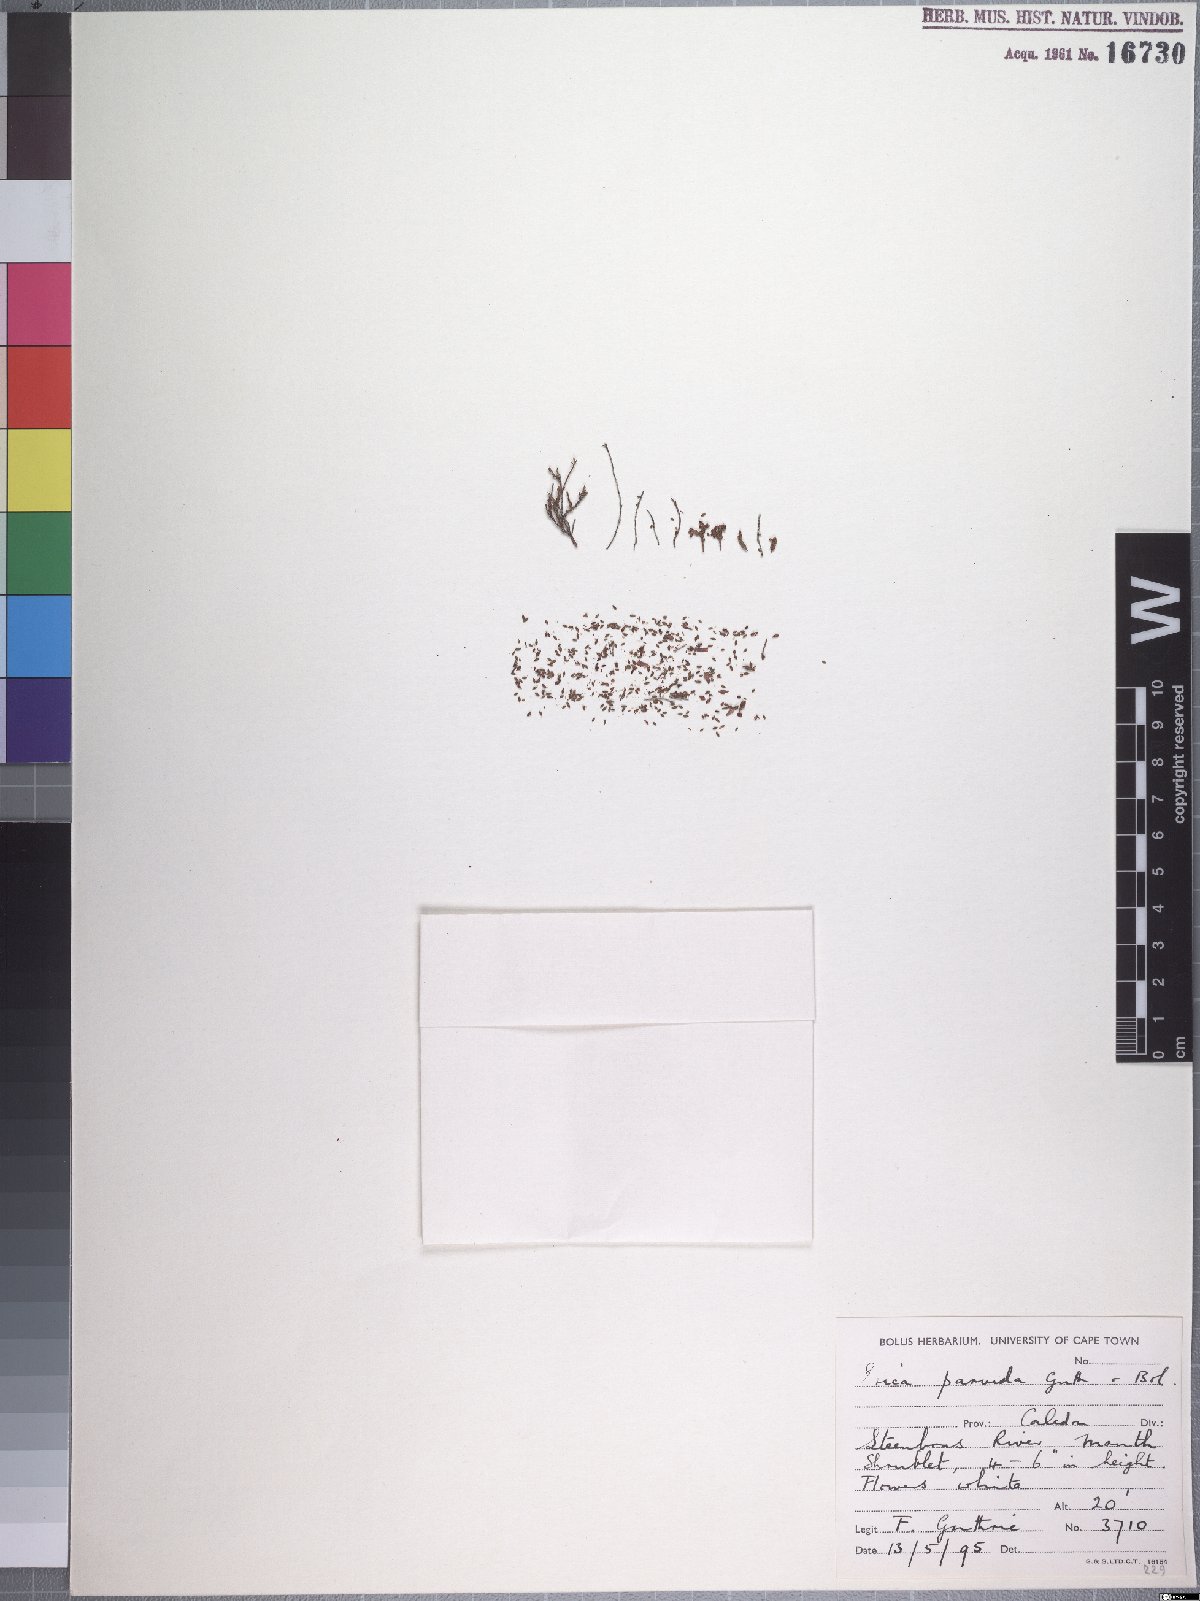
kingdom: Plantae
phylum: Tracheophyta
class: Magnoliopsida
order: Ericales
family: Ericaceae
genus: Erica
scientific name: Erica equisetifolia
